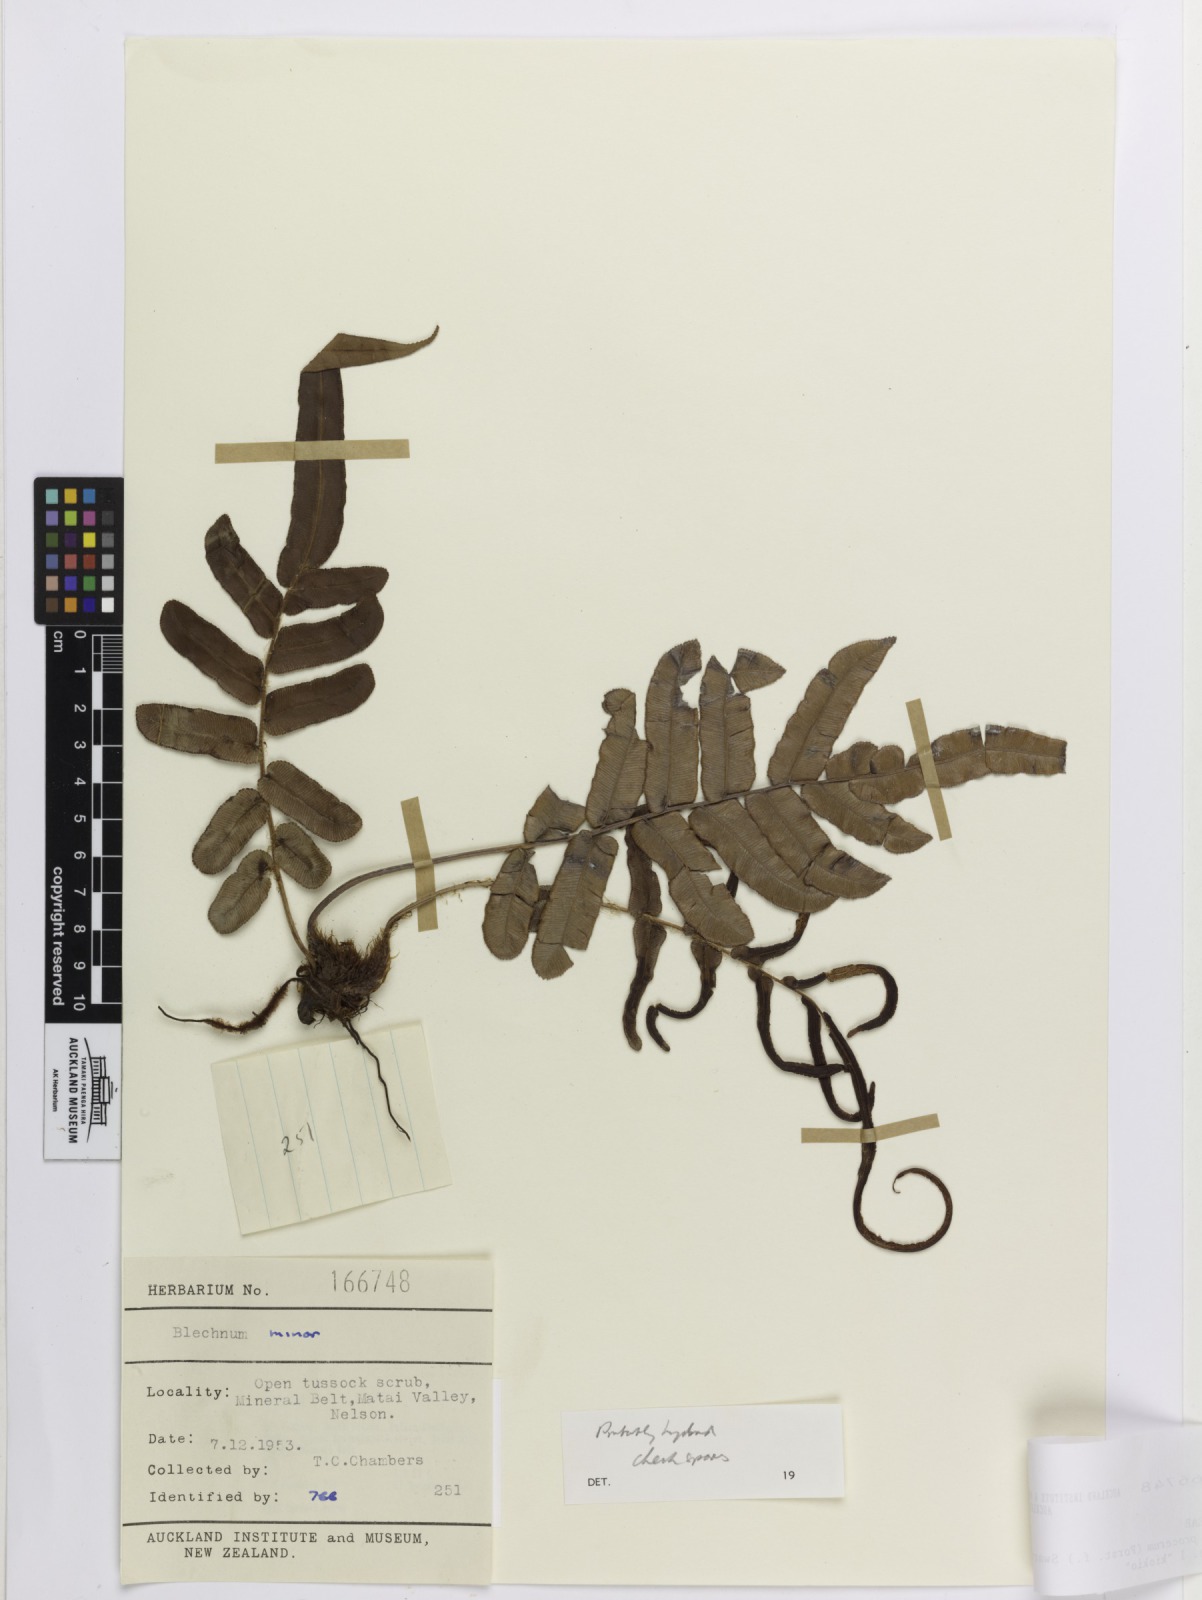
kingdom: Plantae
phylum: Tracheophyta
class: Polypodiopsida
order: Polypodiales
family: Blechnaceae
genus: Blechnum
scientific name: Blechnum
